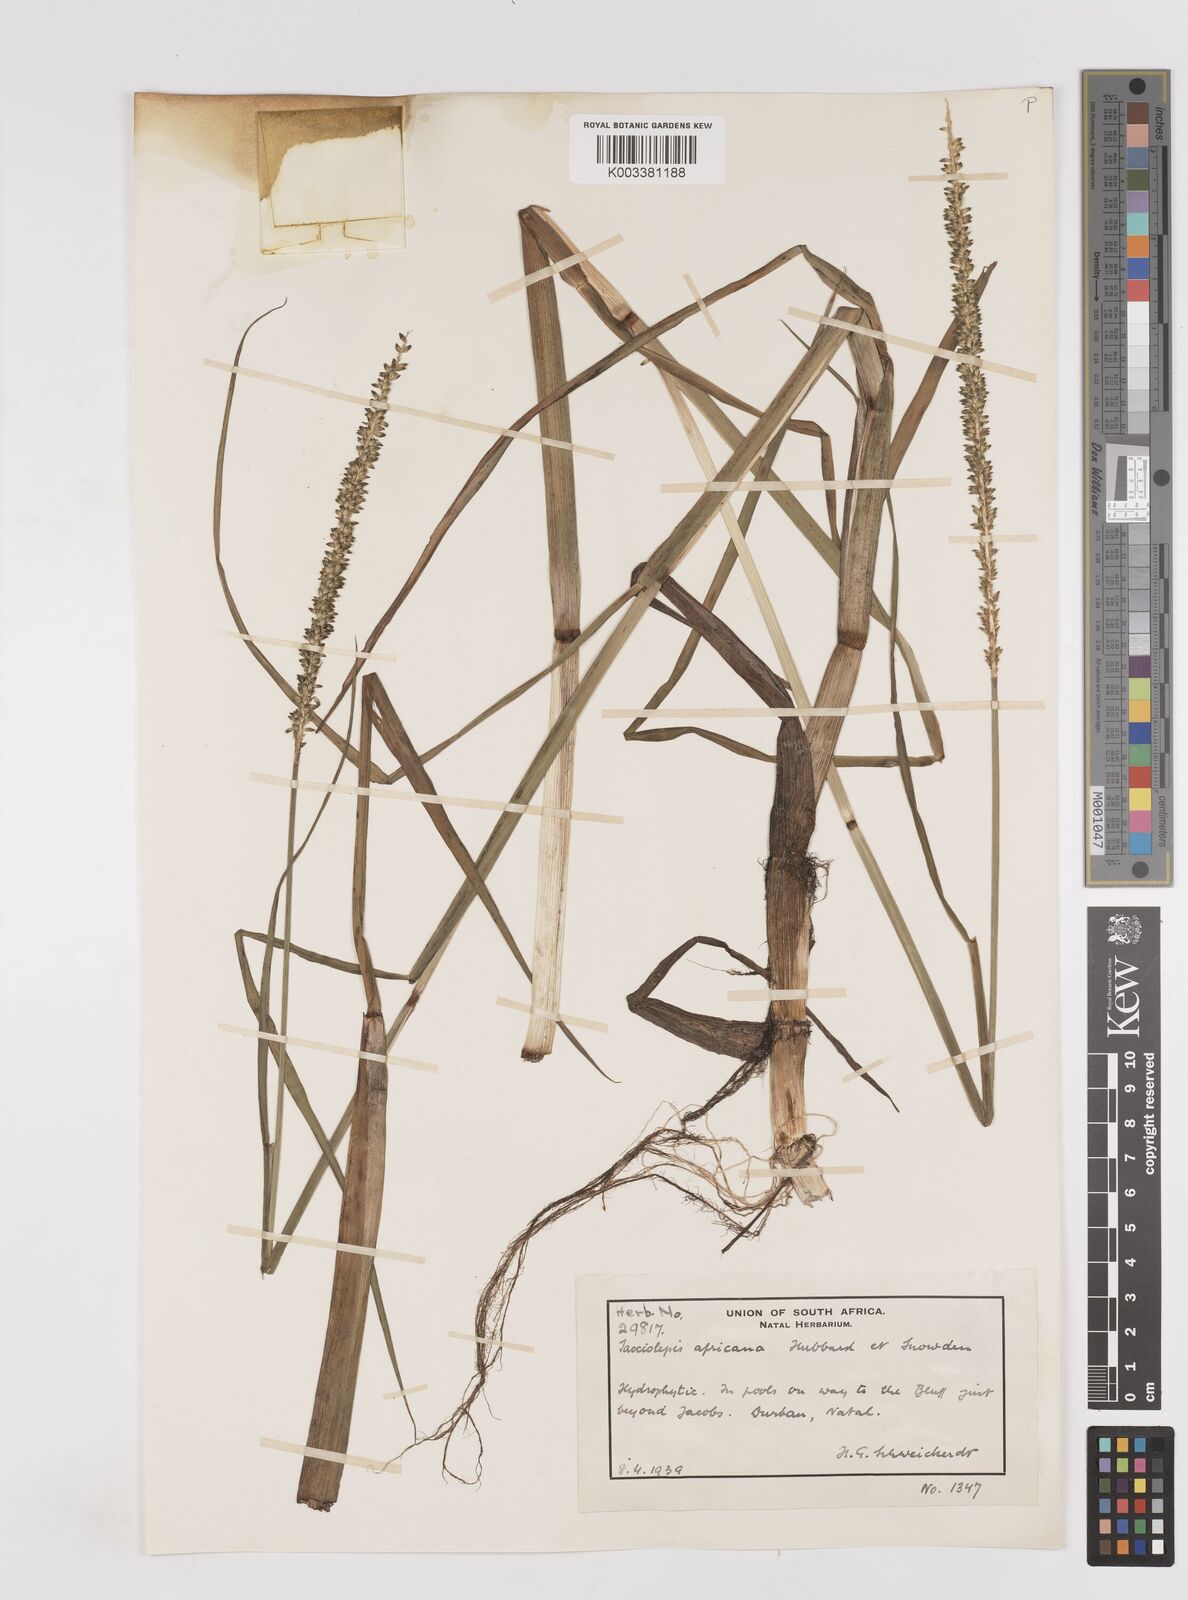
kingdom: Plantae
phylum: Tracheophyta
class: Liliopsida
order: Poales
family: Poaceae
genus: Sacciolepis
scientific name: Sacciolepis africana
